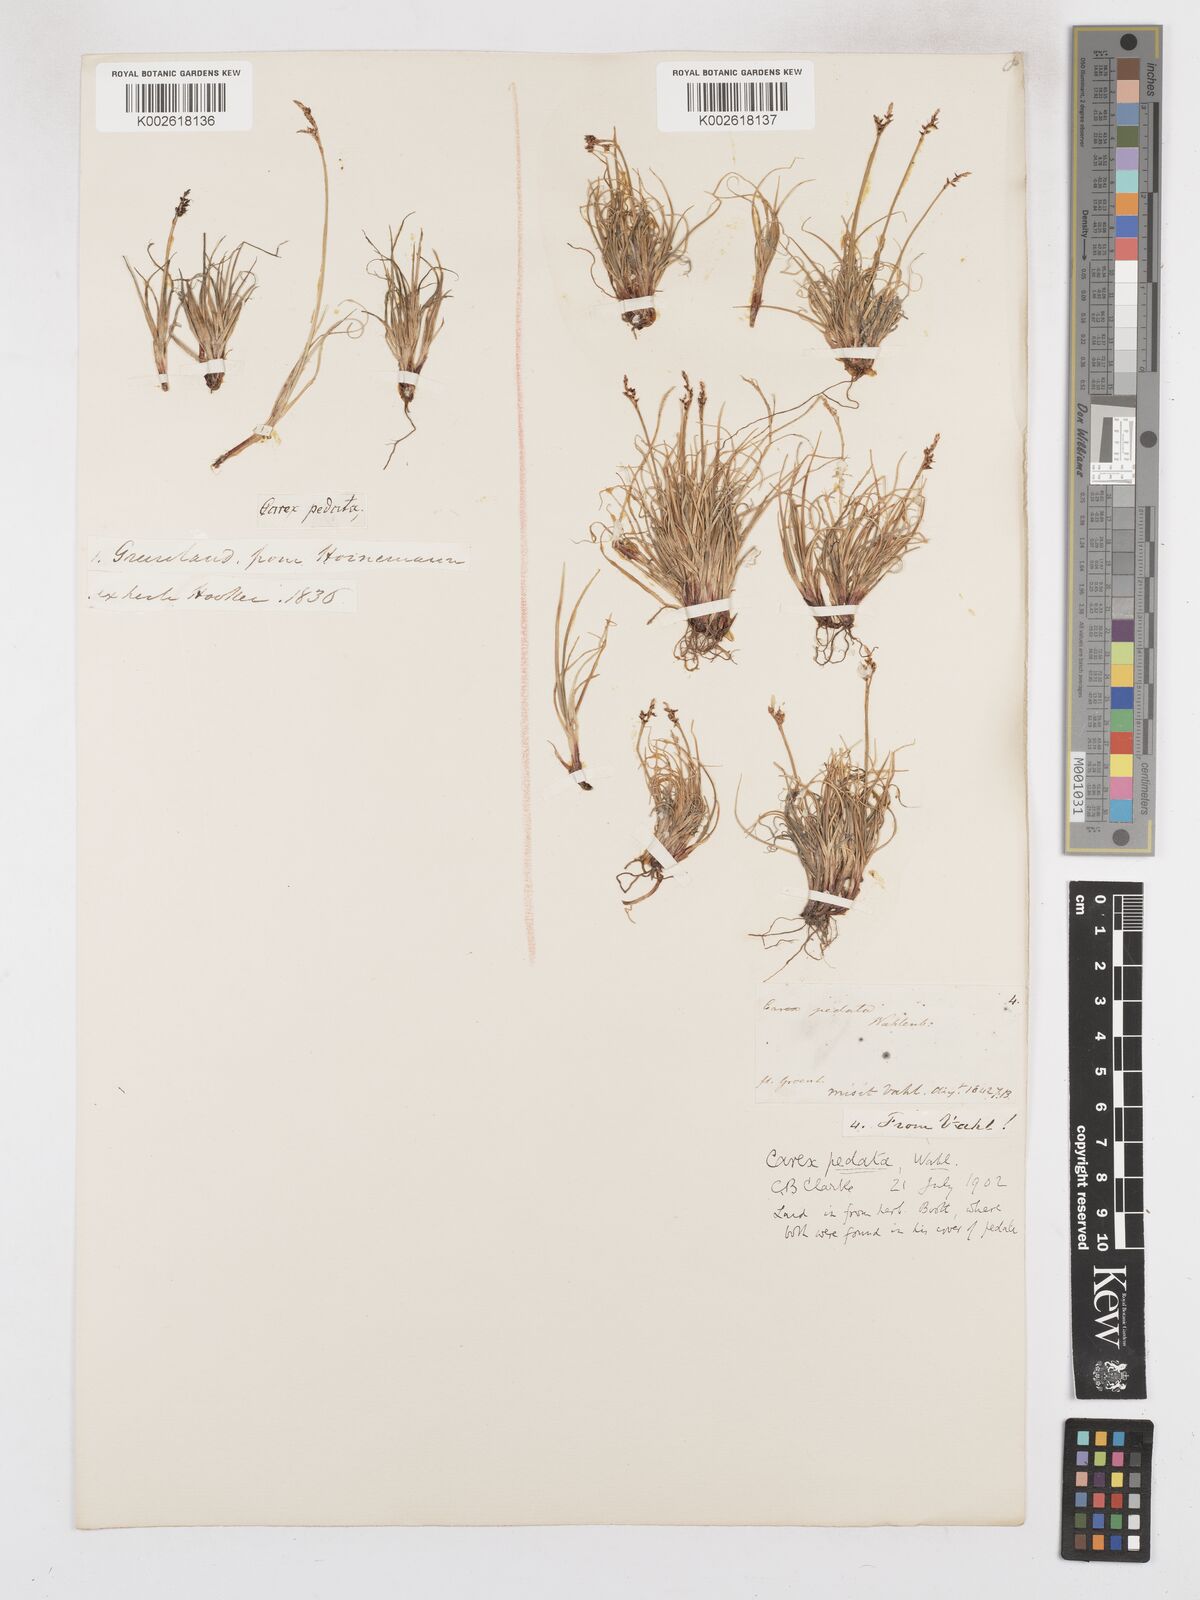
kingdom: Plantae
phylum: Tracheophyta
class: Liliopsida
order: Poales
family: Cyperaceae
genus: Carex
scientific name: Carex glacialis
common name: Newfoundland sedge
